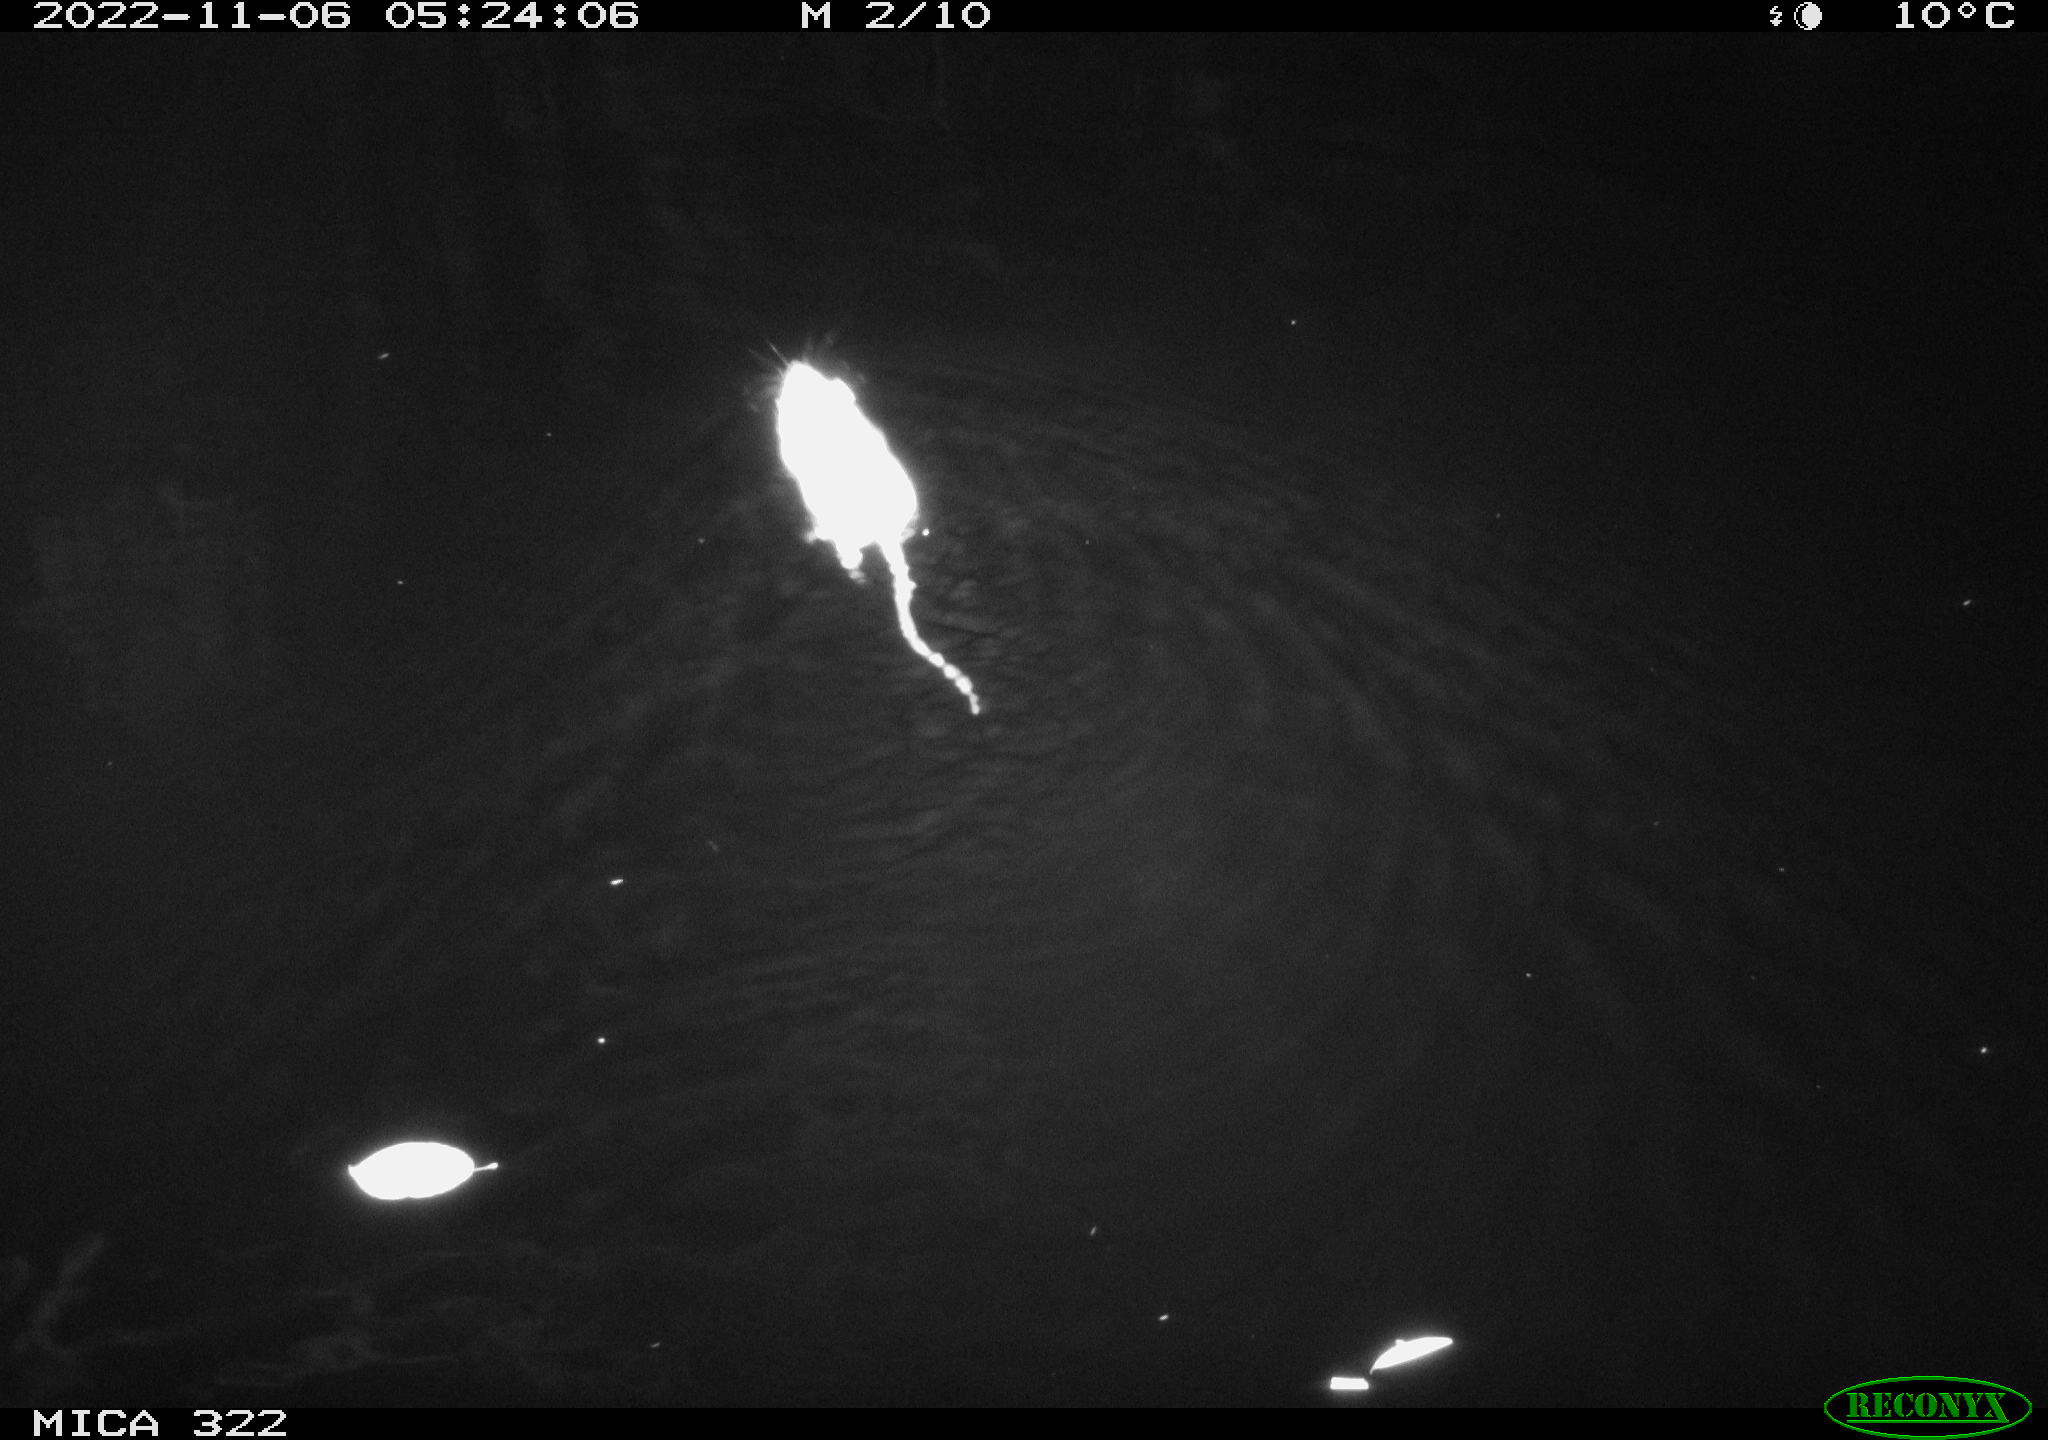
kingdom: Animalia
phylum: Chordata
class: Mammalia
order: Rodentia
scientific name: Rodentia
